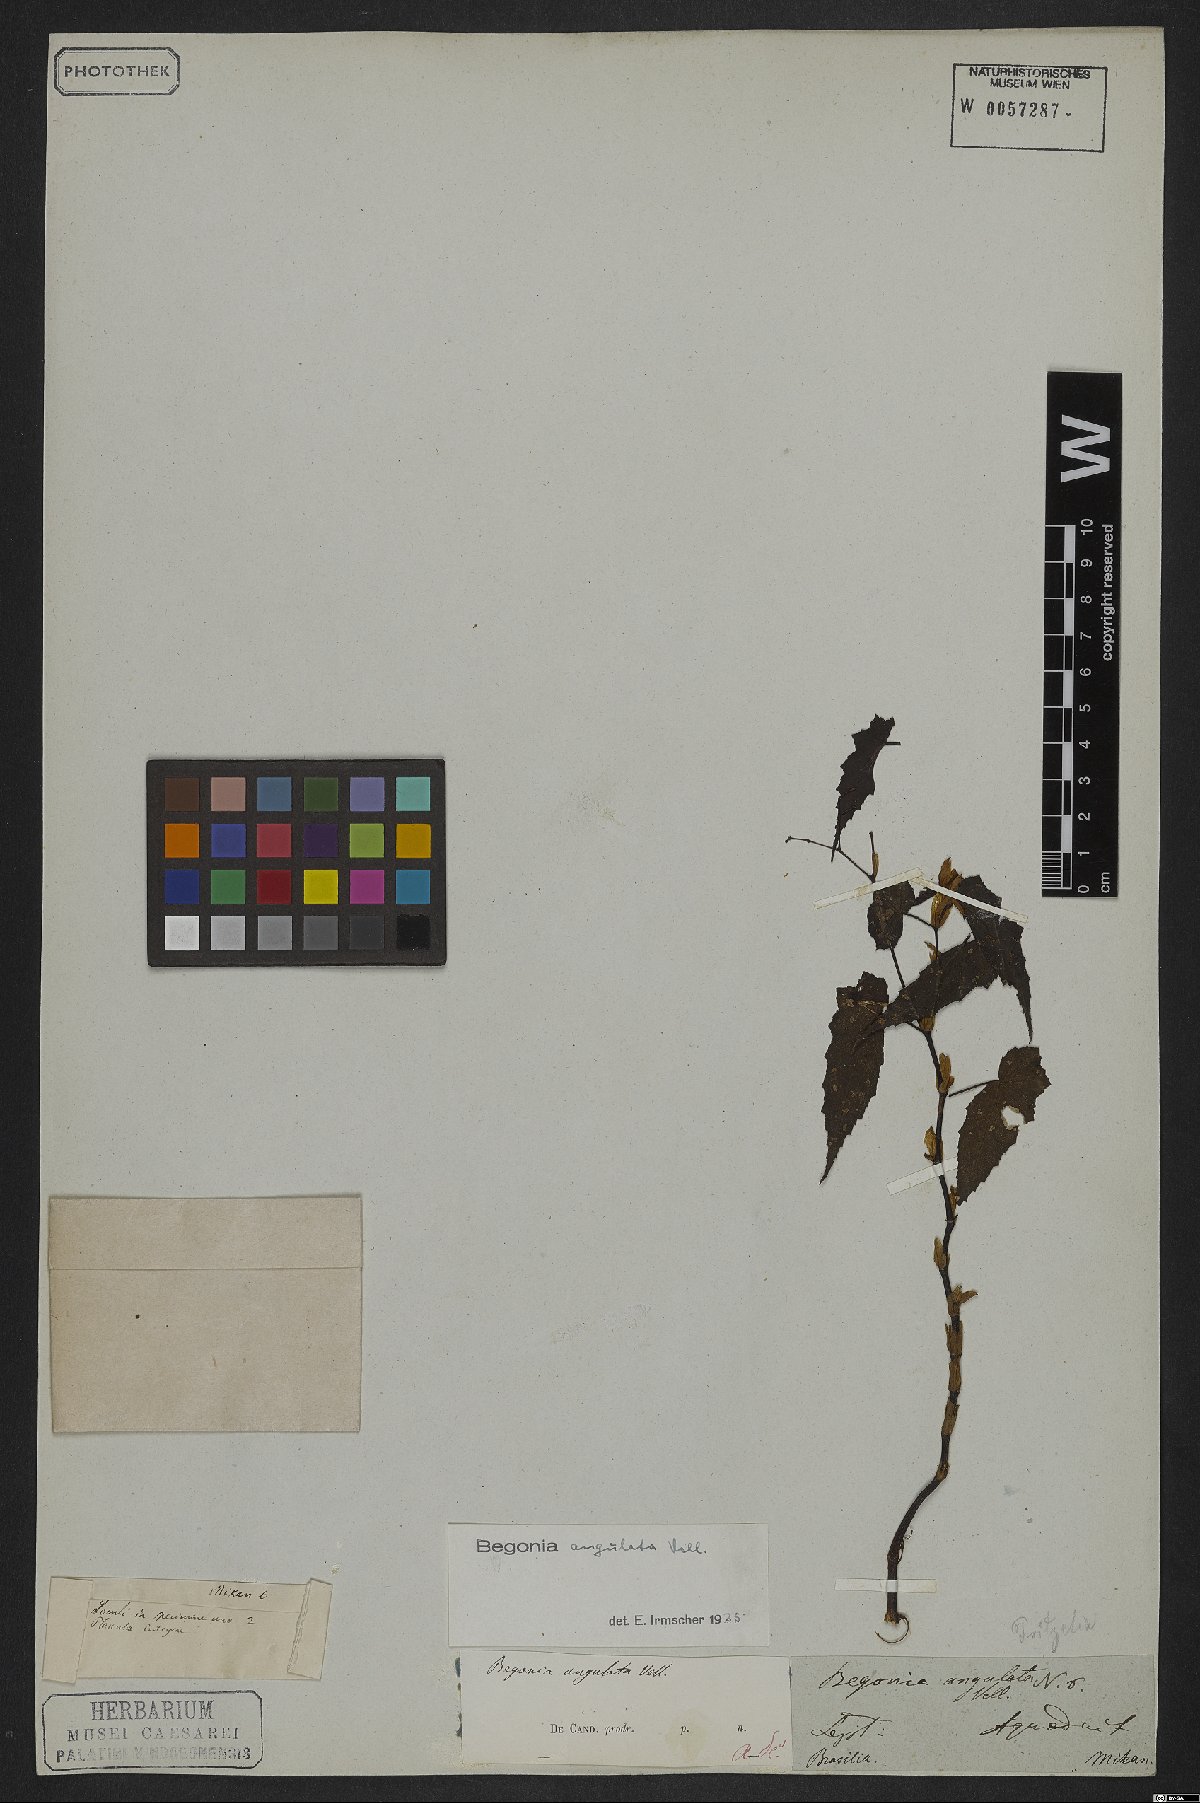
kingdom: Plantae
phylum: Tracheophyta
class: Magnoliopsida
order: Cucurbitales
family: Begoniaceae
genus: Begonia
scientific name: Begonia angulata
